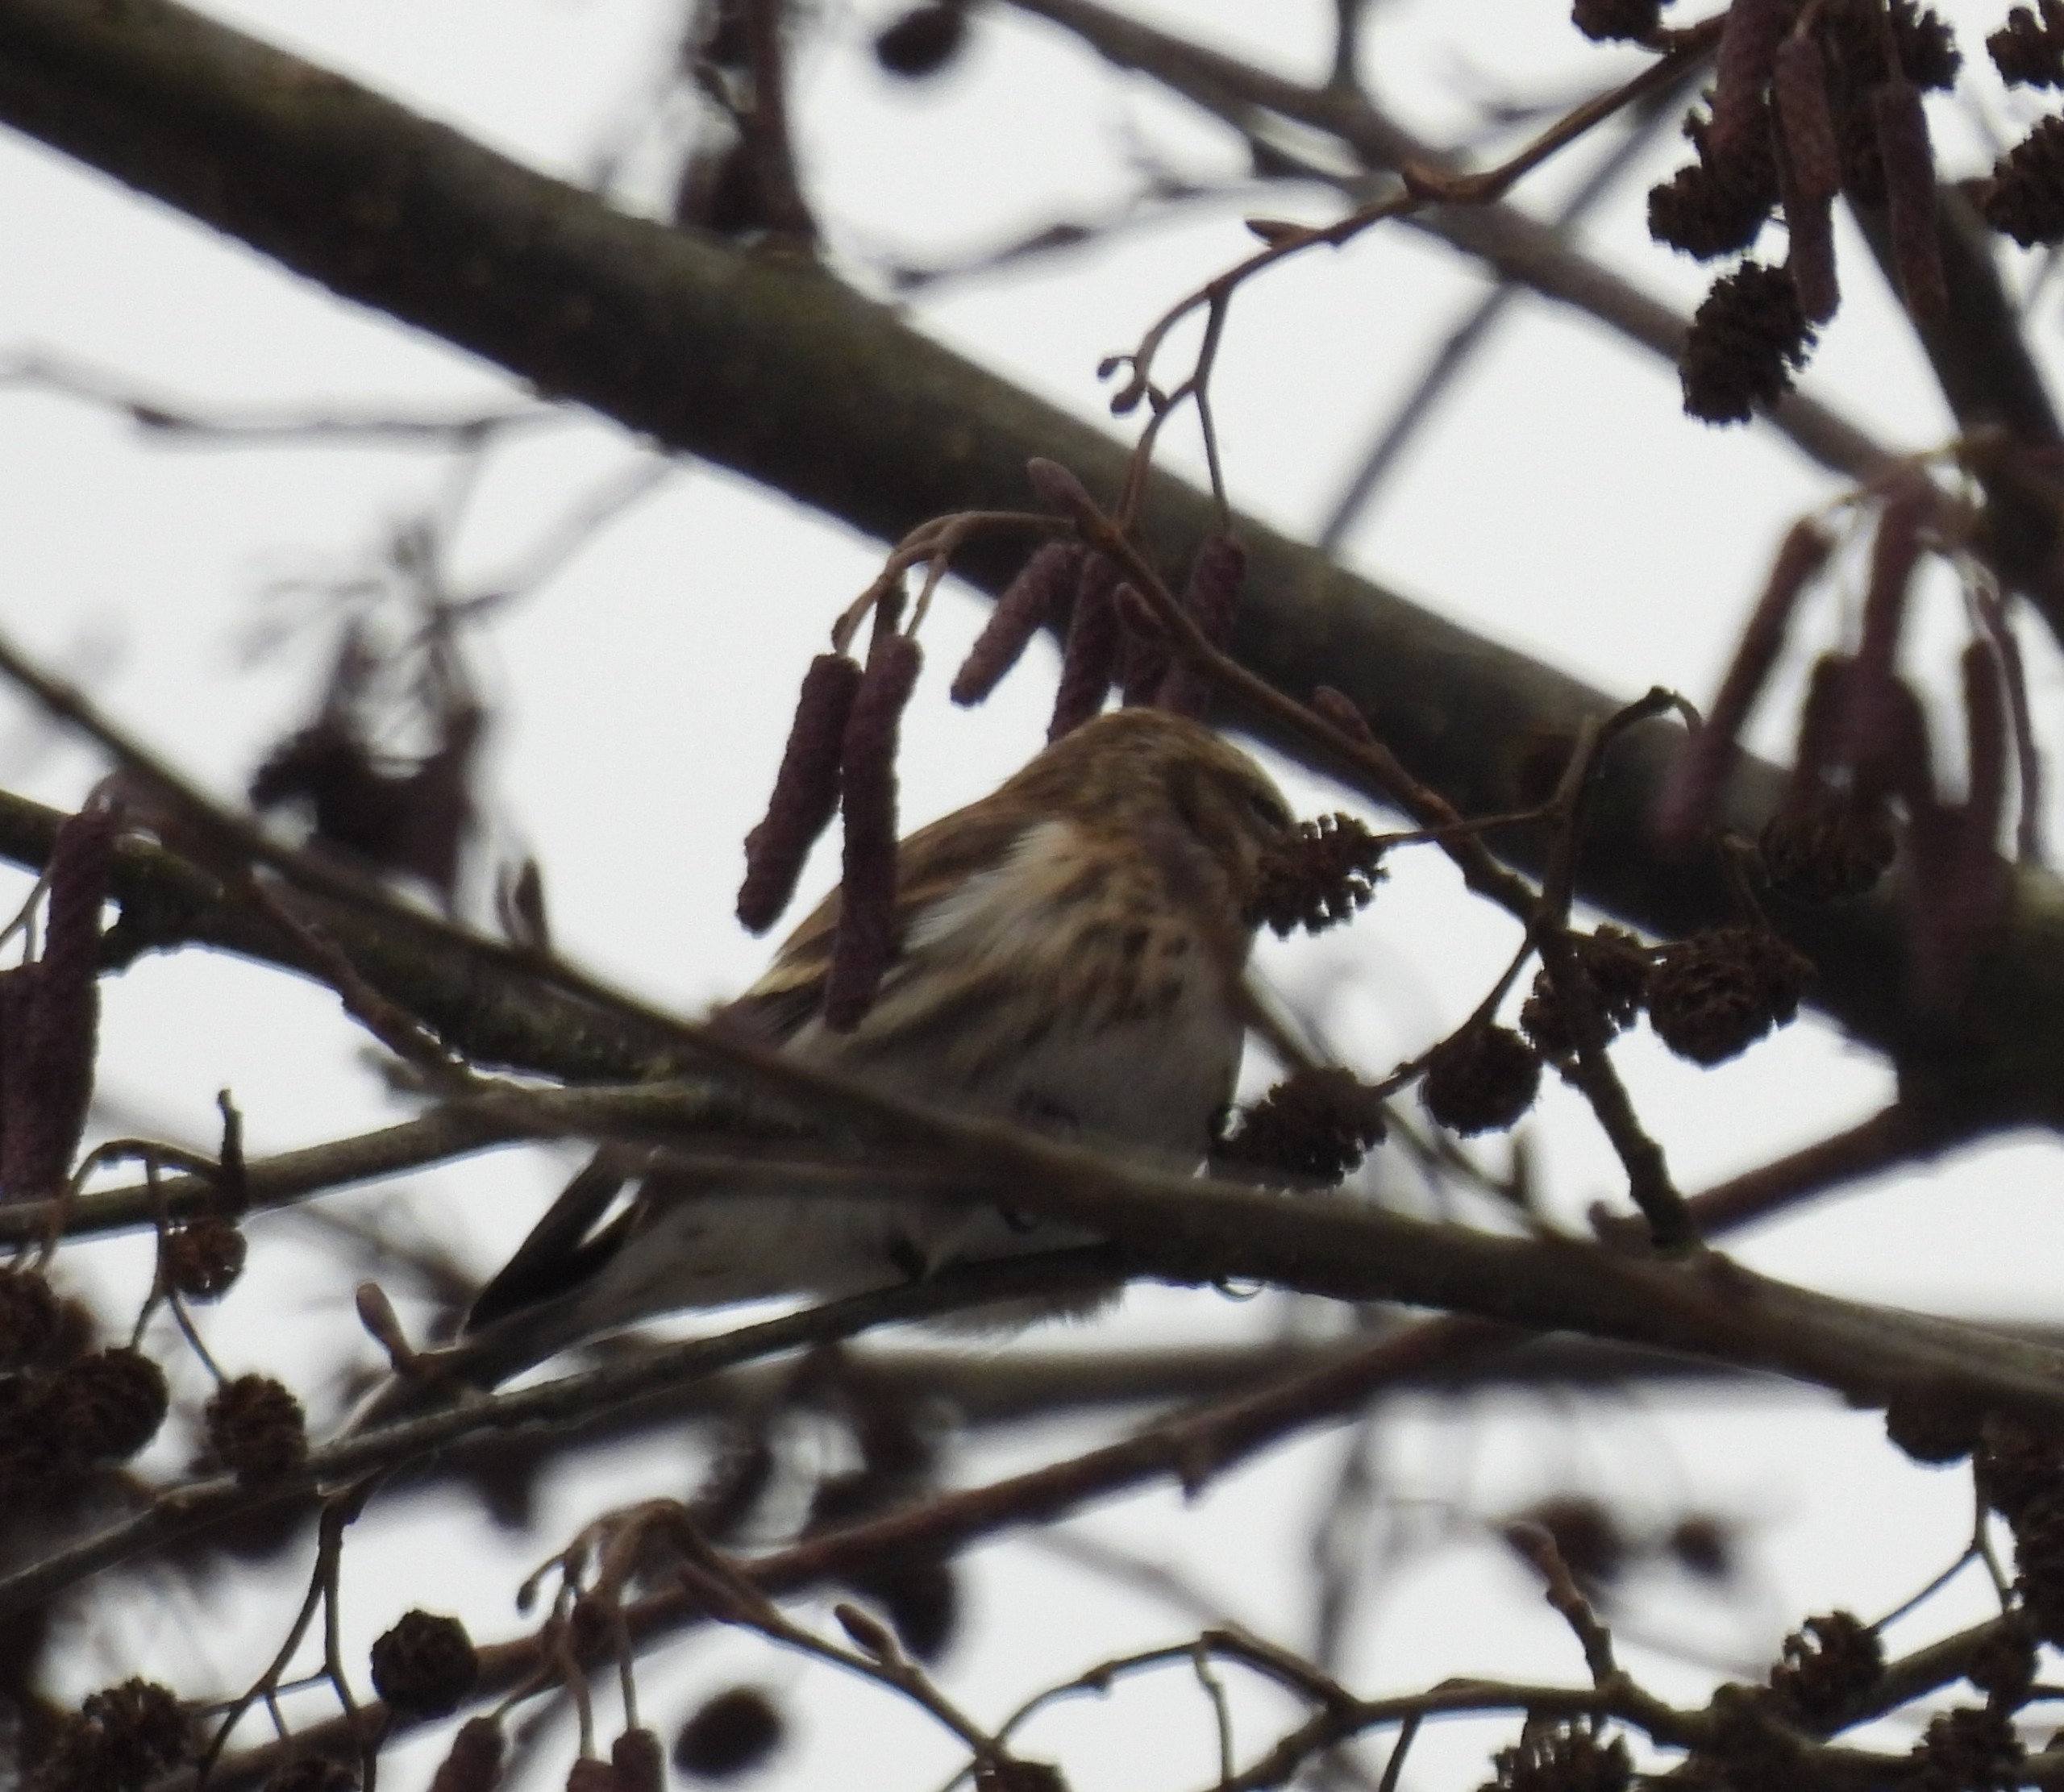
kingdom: Animalia
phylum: Chordata
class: Aves
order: Passeriformes
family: Fringillidae
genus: Acanthis
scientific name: Acanthis flammea
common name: Lille gråsisken
